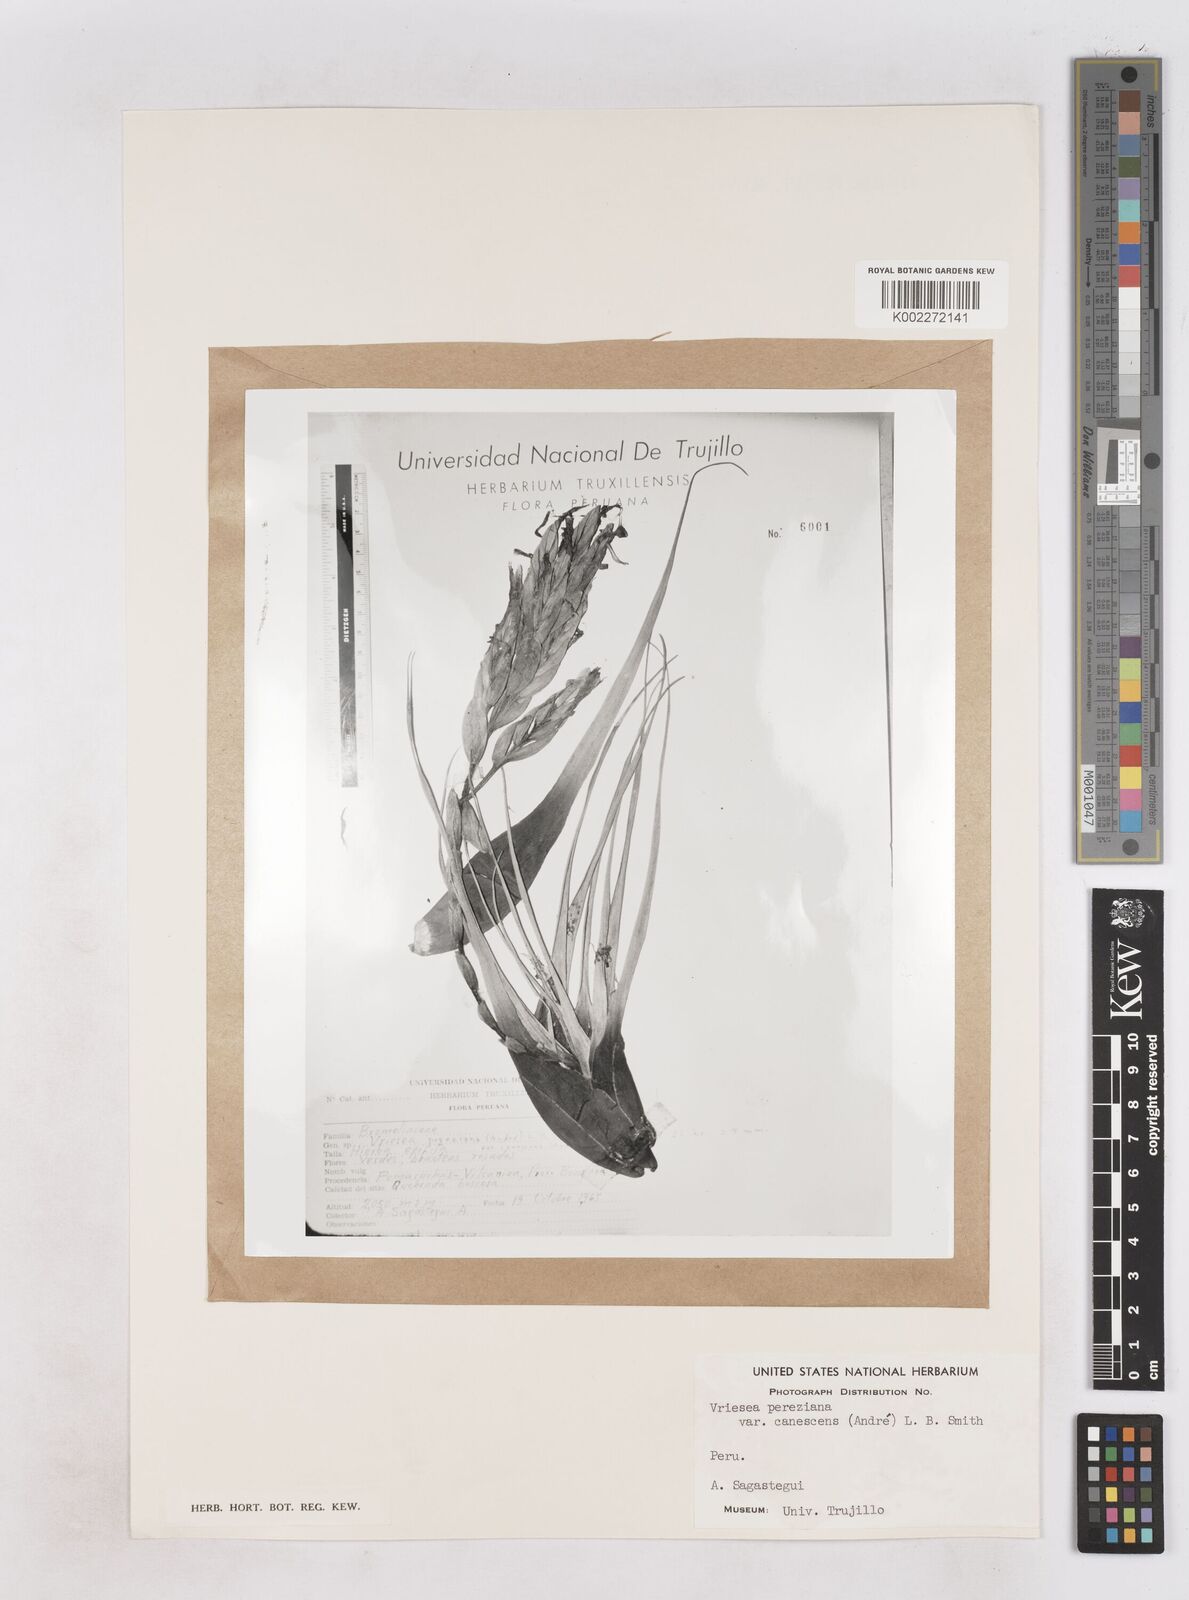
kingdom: Plantae
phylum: Tracheophyta
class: Liliopsida
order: Poales
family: Bromeliaceae
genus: Vriesea
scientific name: Vriesea pereziana
